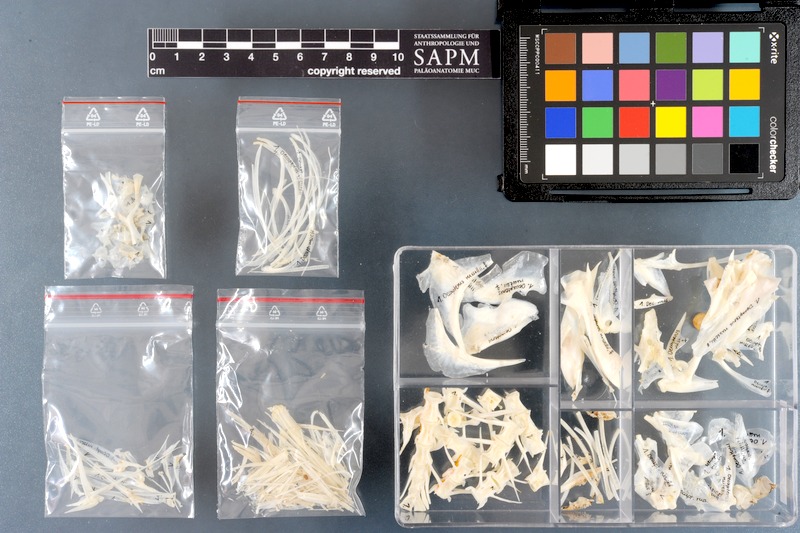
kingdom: Animalia
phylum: Chordata
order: Perciformes
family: Carangidae
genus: Decapterus
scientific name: Decapterus russelli
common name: Indian scad
